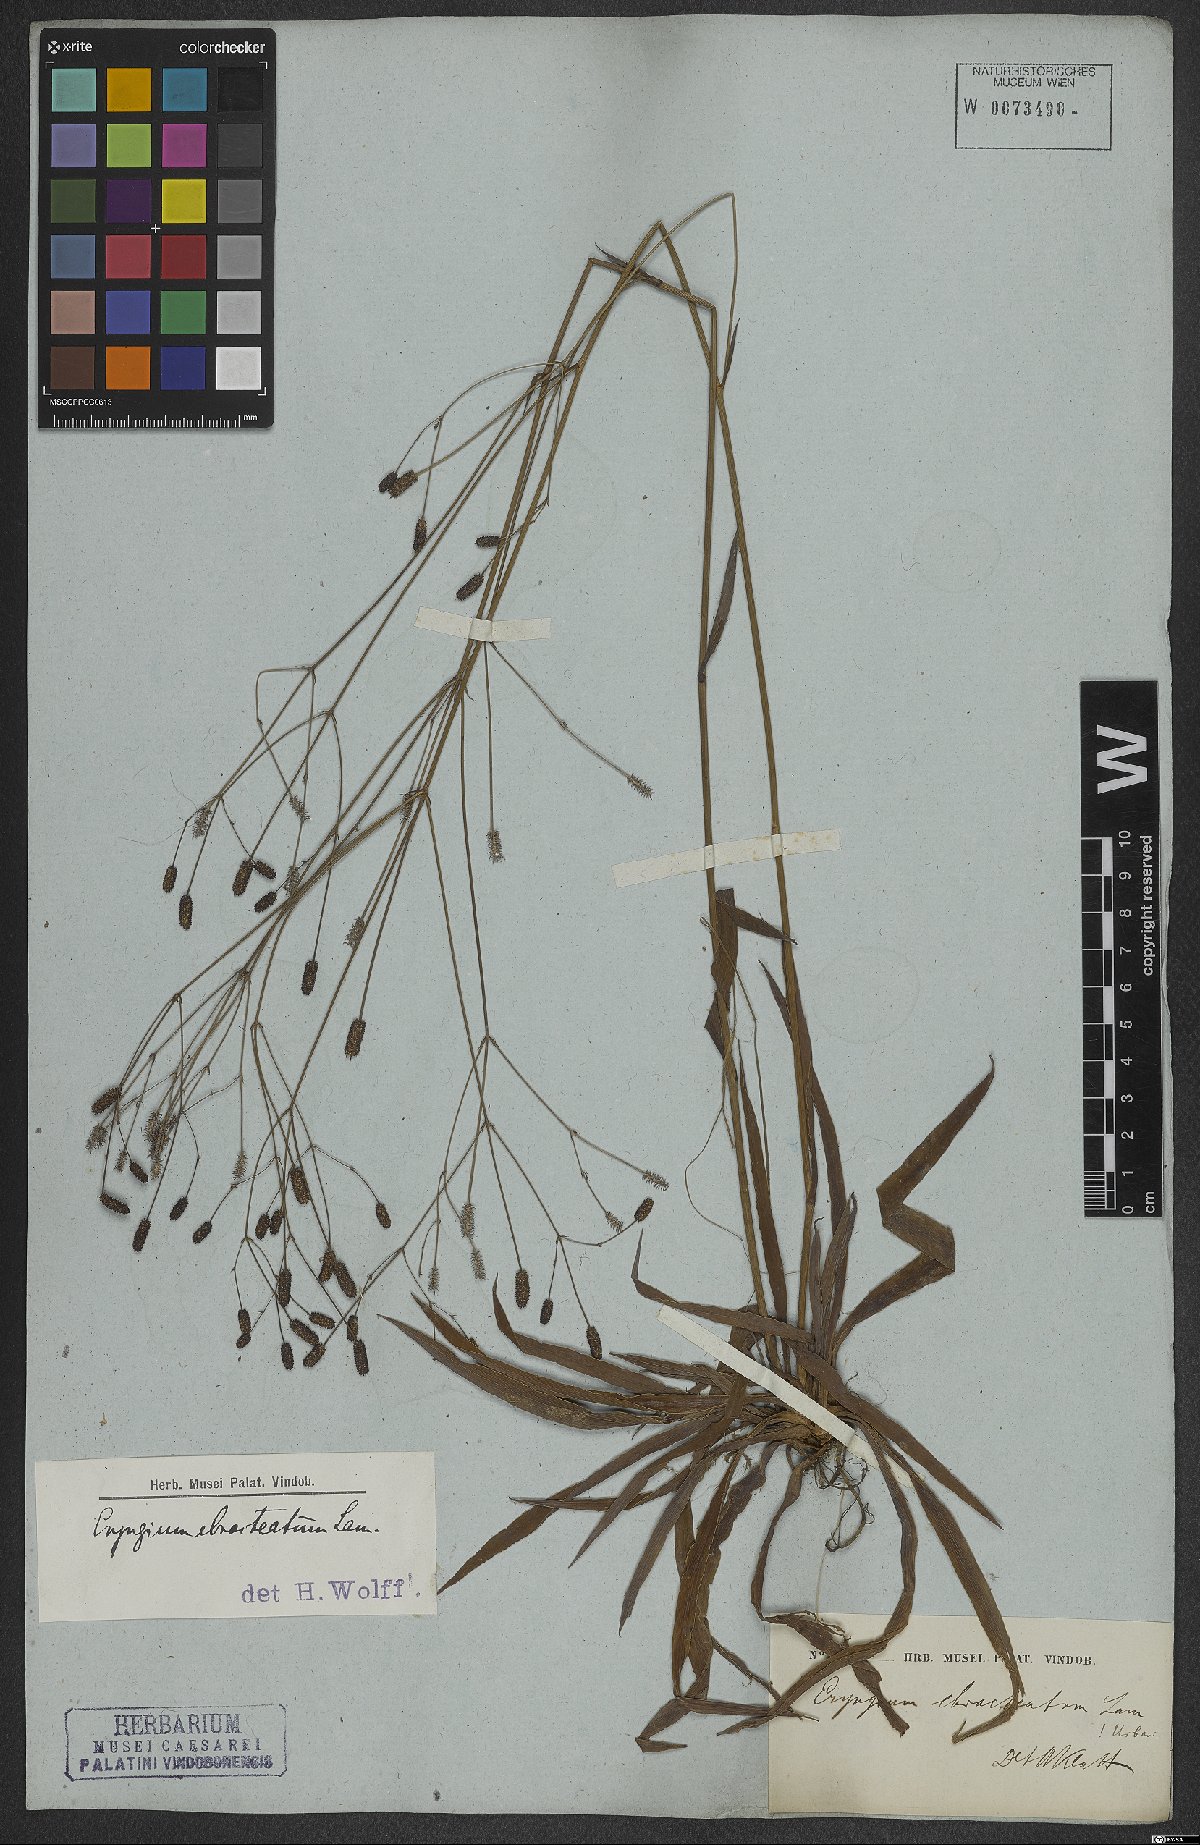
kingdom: Plantae
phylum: Tracheophyta
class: Magnoliopsida
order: Apiales
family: Apiaceae
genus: Eryngium
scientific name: Eryngium ebracteatum
